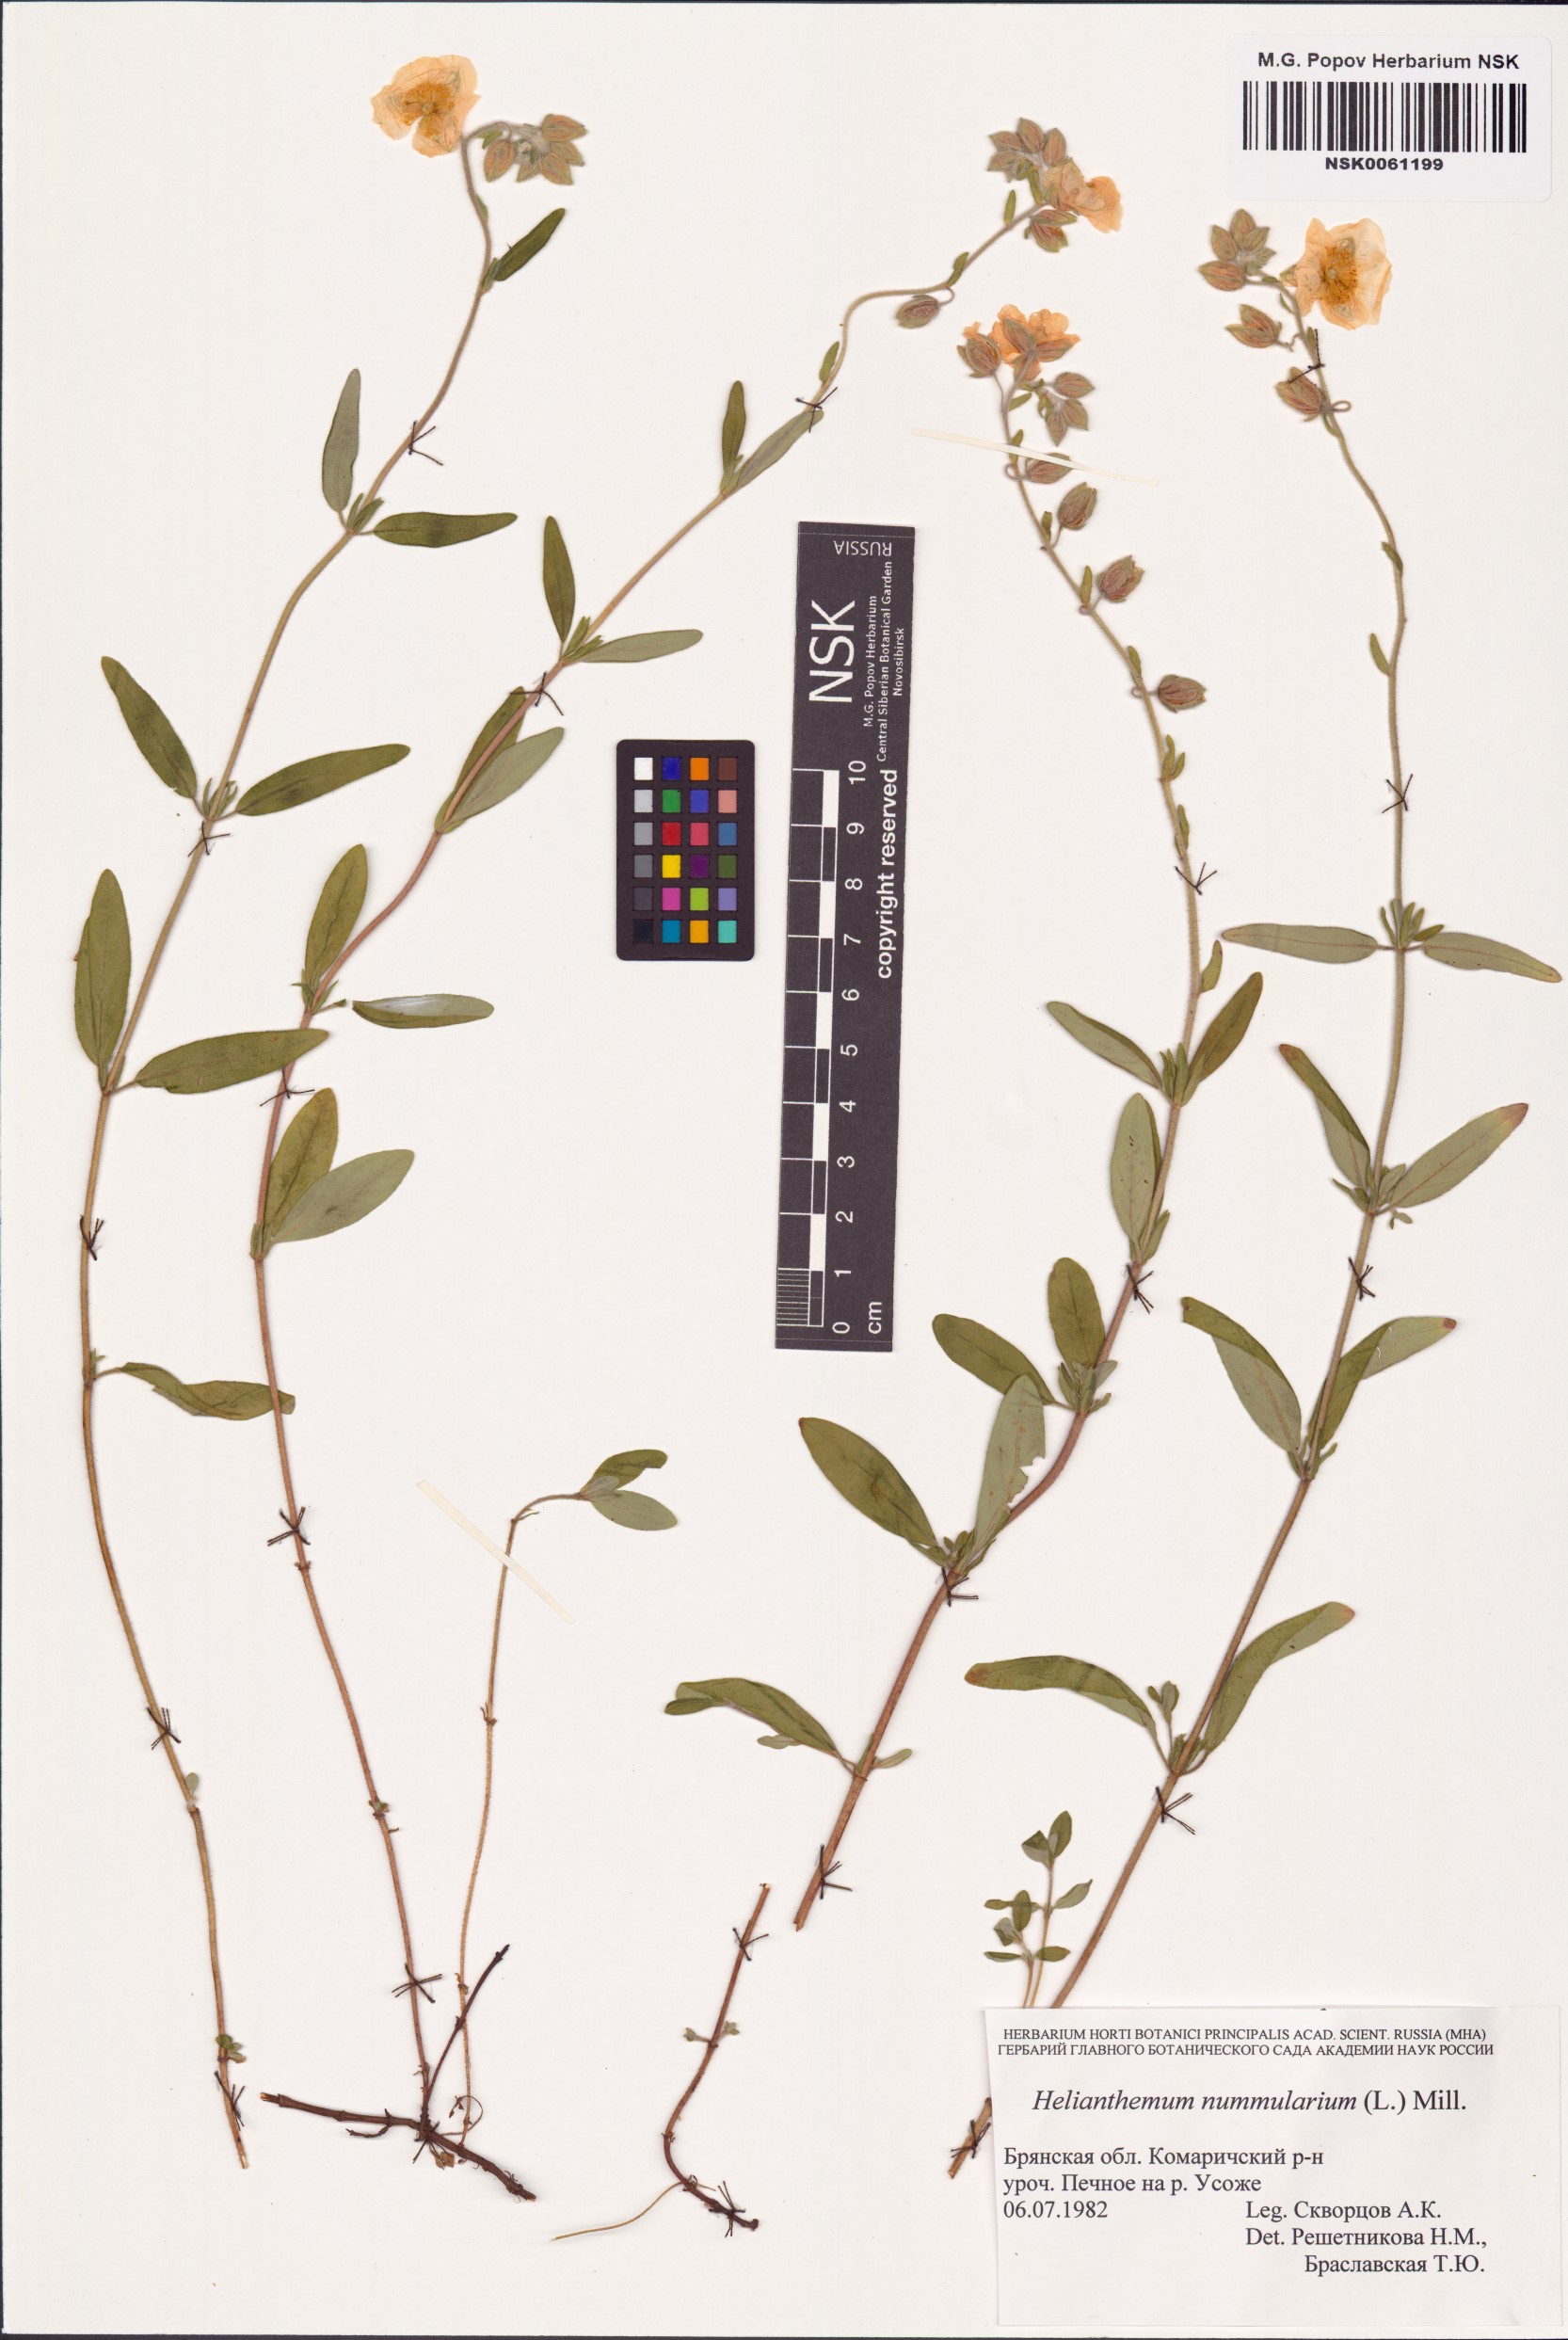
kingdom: Plantae
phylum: Tracheophyta
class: Magnoliopsida
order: Malvales
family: Cistaceae
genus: Helianthemum
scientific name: Helianthemum nummularium
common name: Common rock-rose
